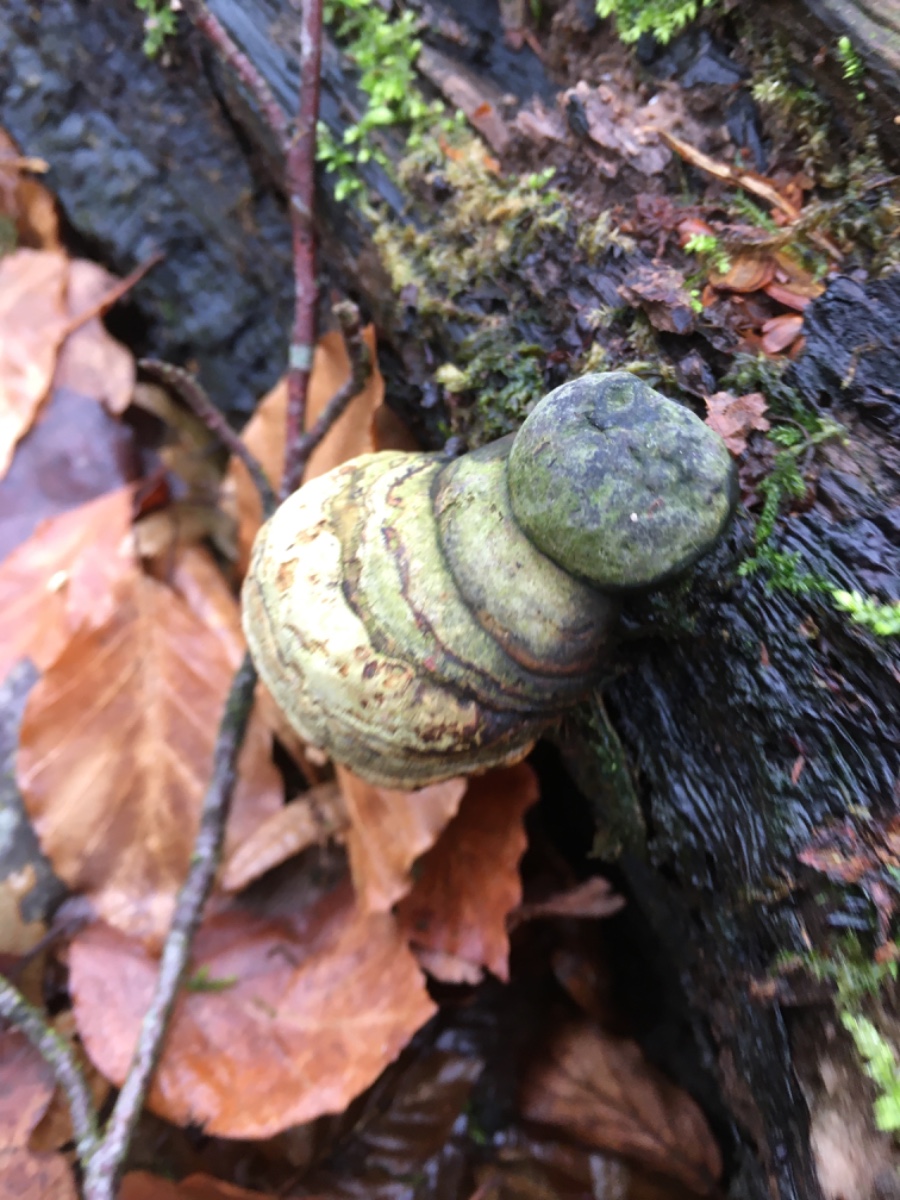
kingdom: Fungi
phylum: Basidiomycota
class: Agaricomycetes
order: Polyporales
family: Polyporaceae
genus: Fomes
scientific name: Fomes fomentarius
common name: tøndersvamp
